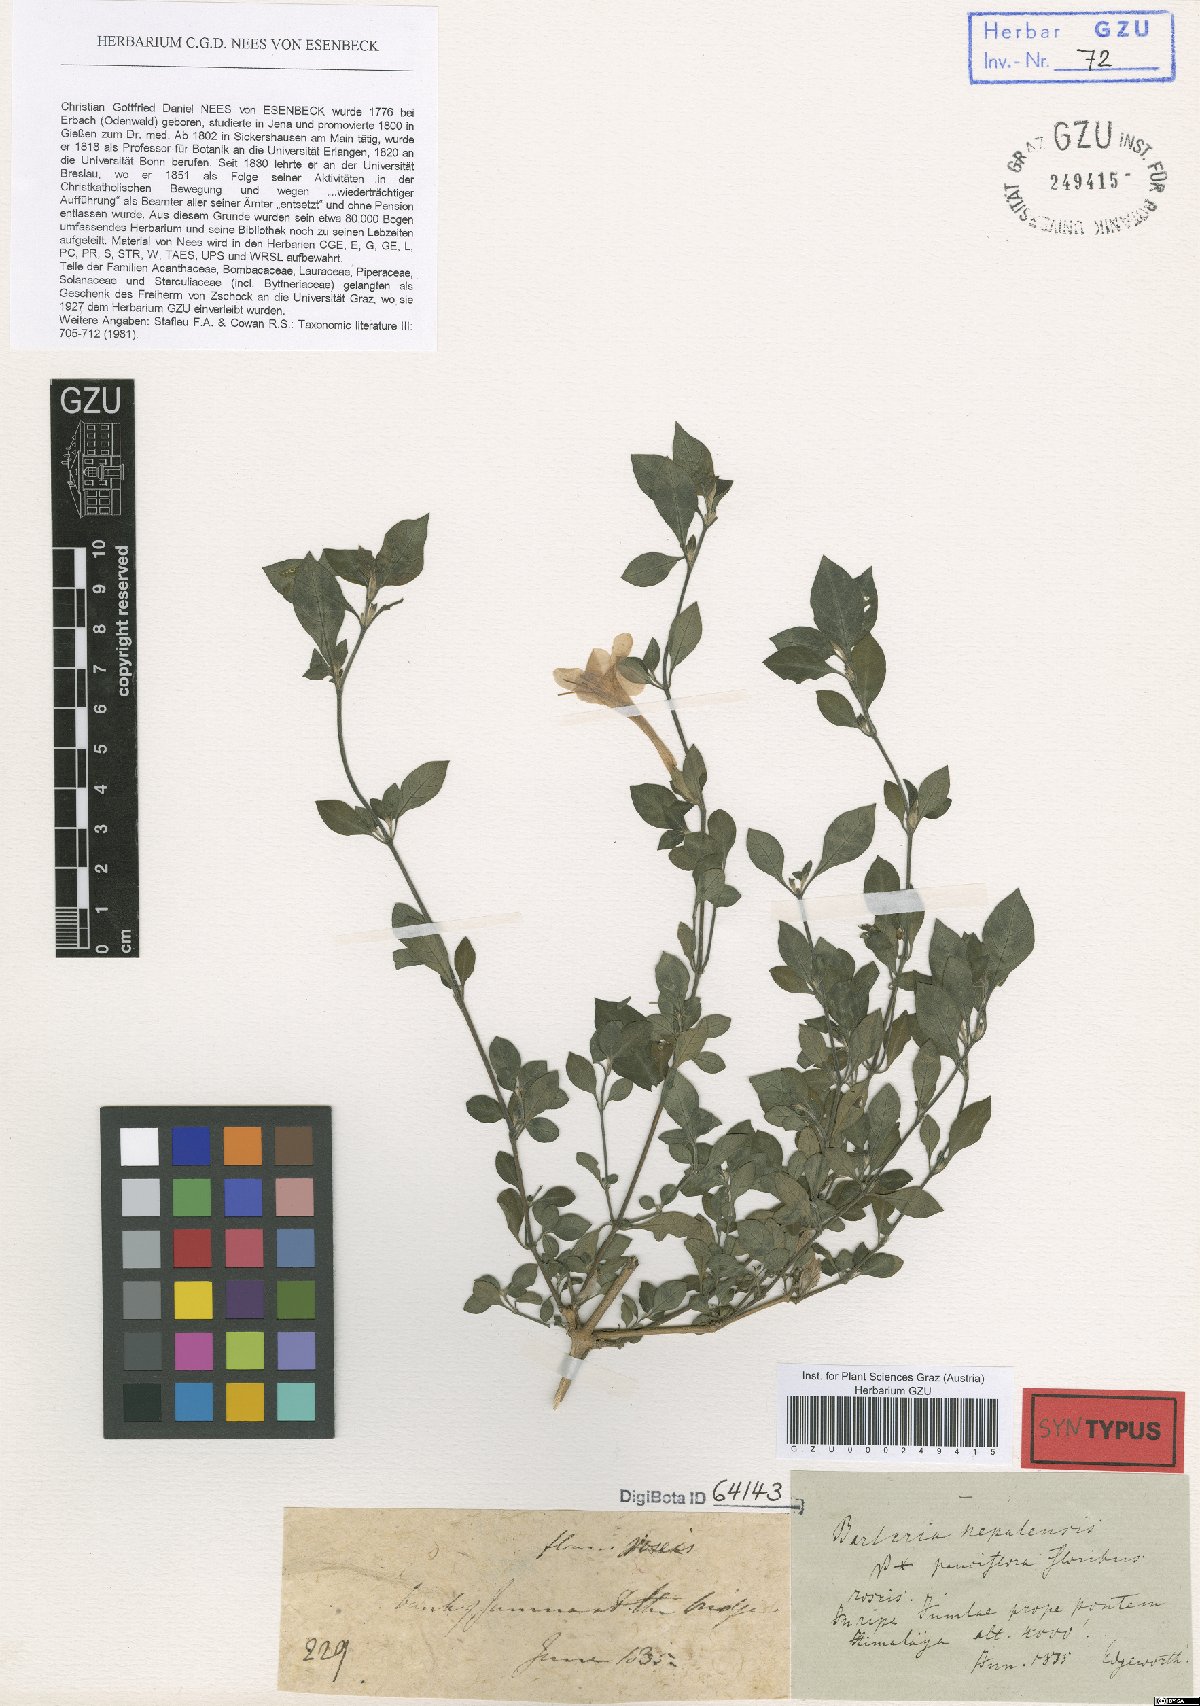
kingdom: Plantae
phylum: Tracheophyta
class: Magnoliopsida
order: Lamiales
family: Acanthaceae
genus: Barleria
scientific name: Barleria cristata
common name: Crested philippine violet
